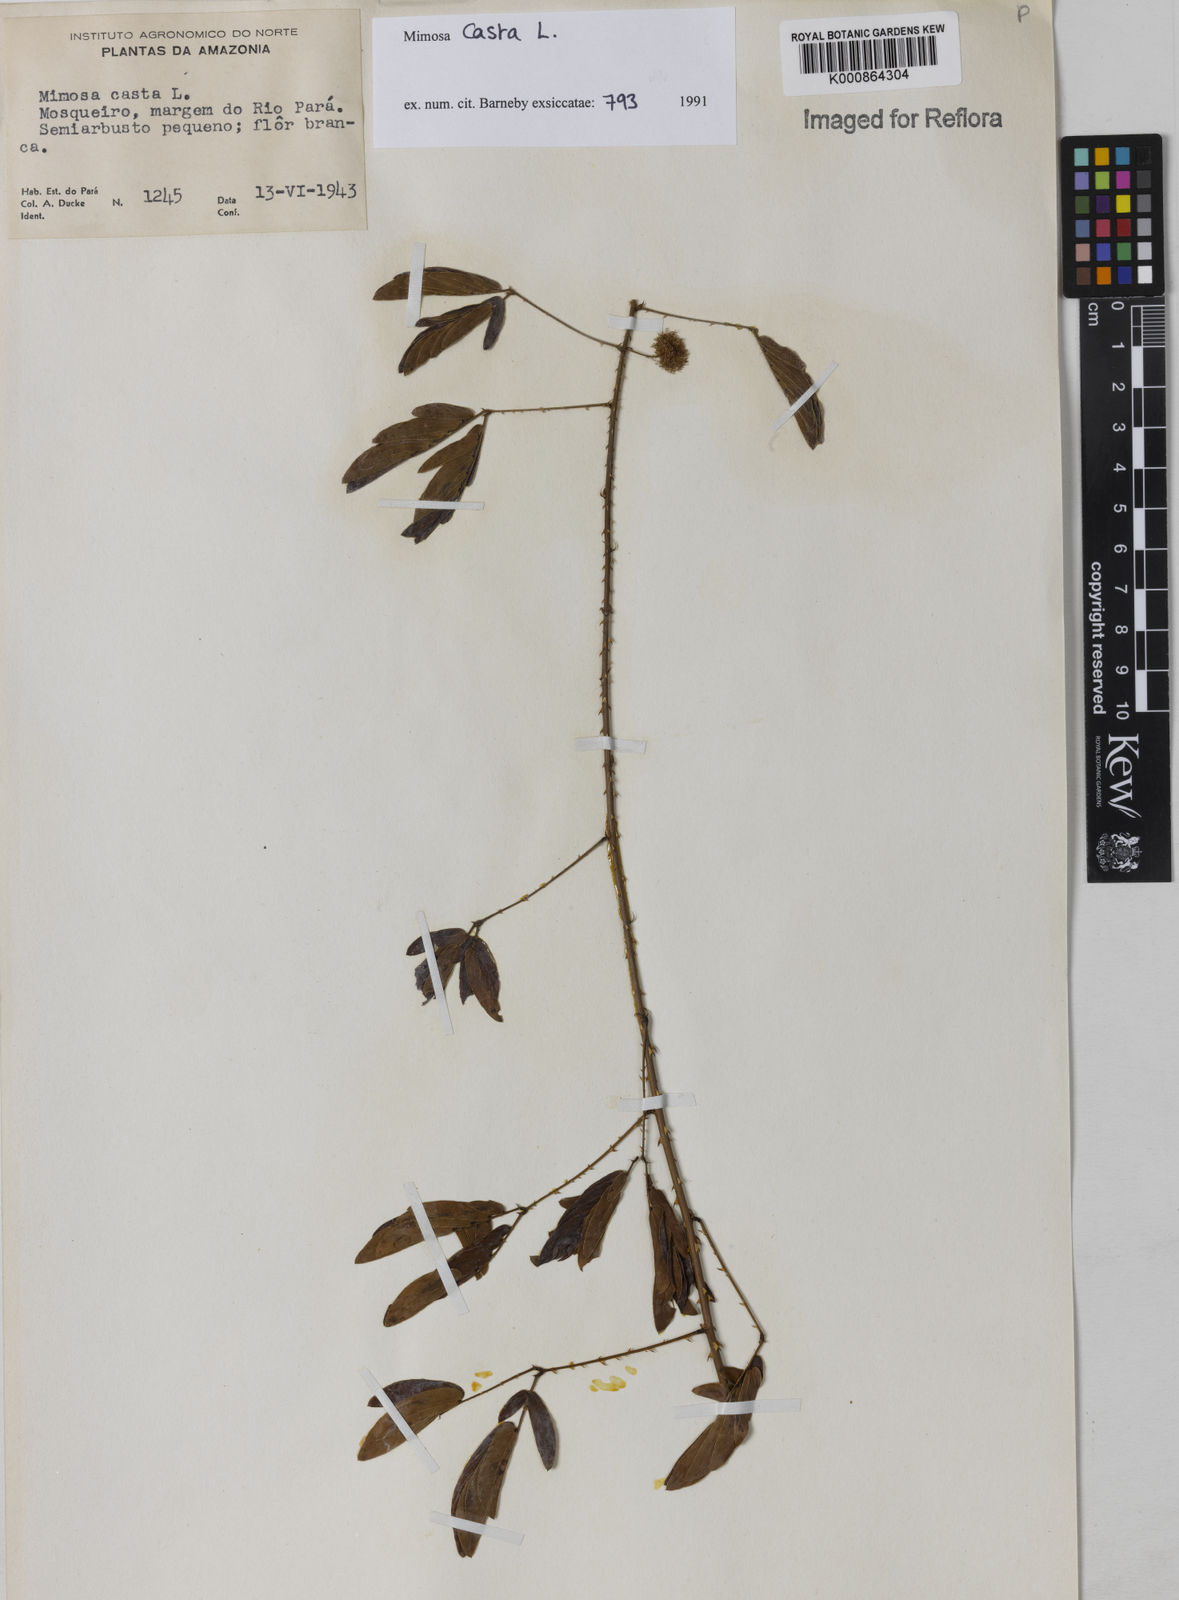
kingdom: Plantae
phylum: Tracheophyta
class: Magnoliopsida
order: Fabales
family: Fabaceae
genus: Mimosa
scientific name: Mimosa casta
